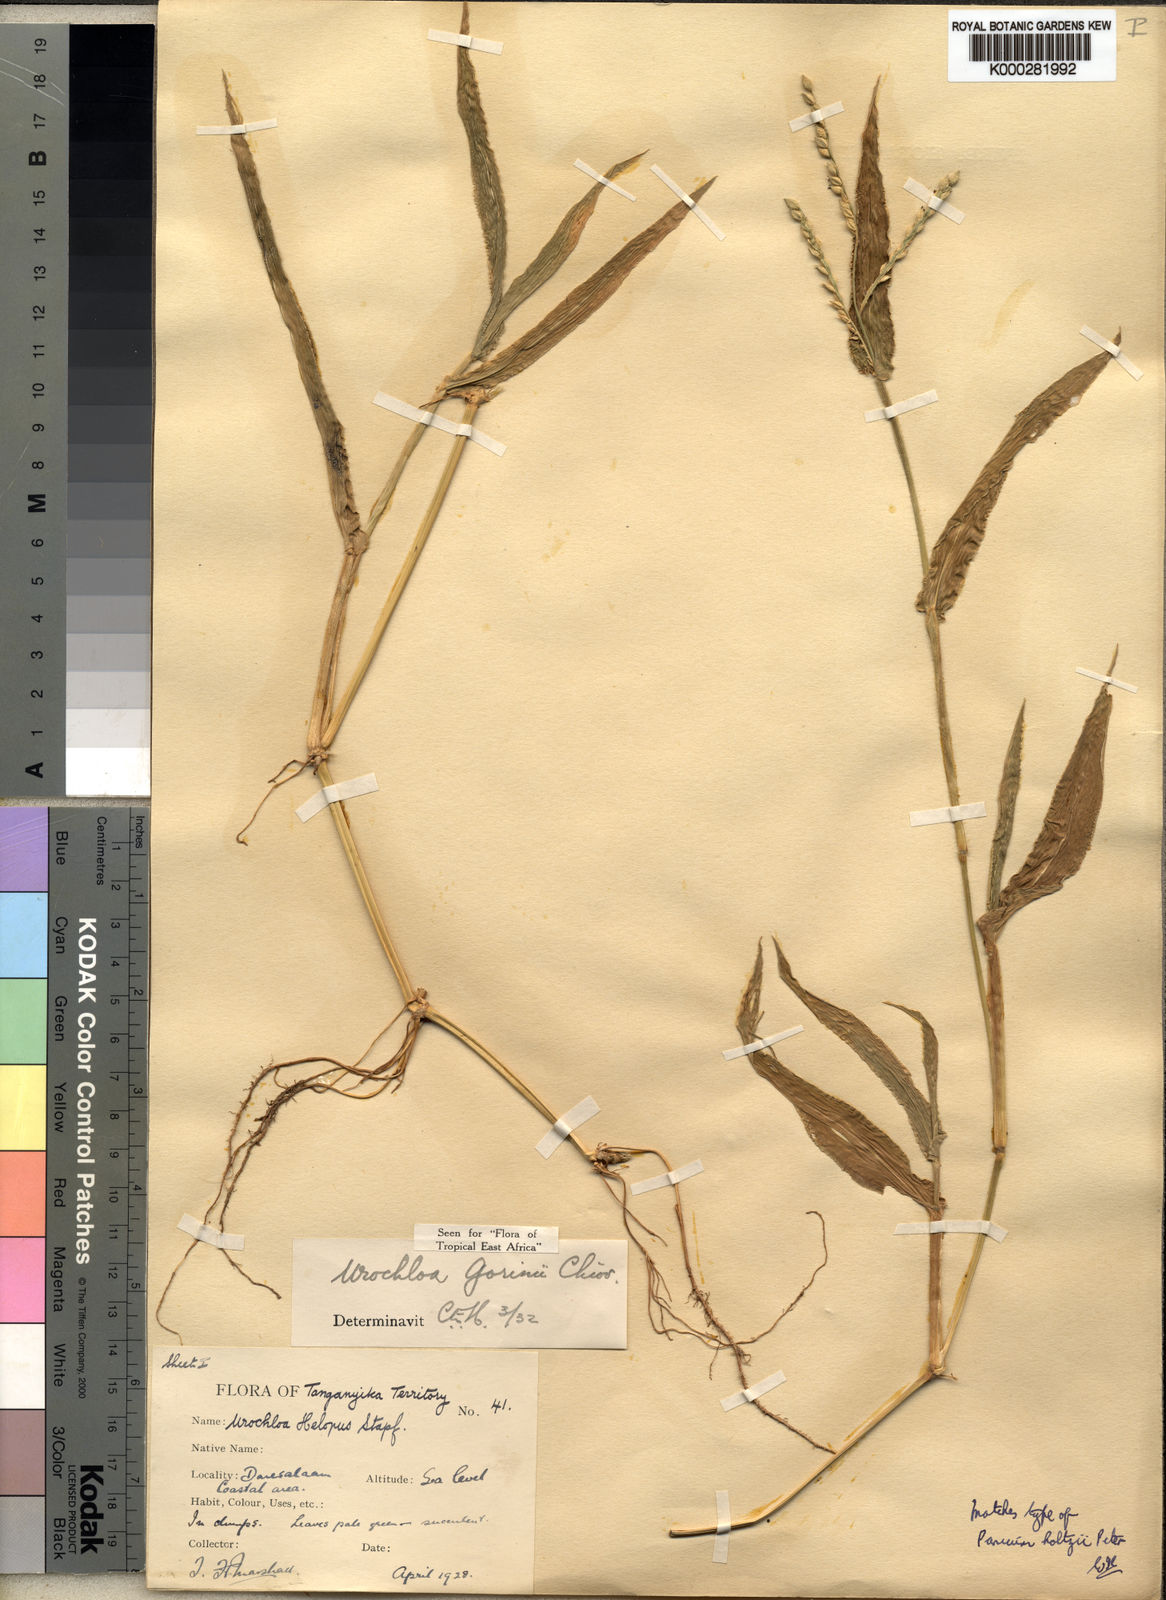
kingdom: Plantae
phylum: Tracheophyta
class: Liliopsida
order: Poales
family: Poaceae
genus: Urochloa
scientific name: Urochloa rudis
